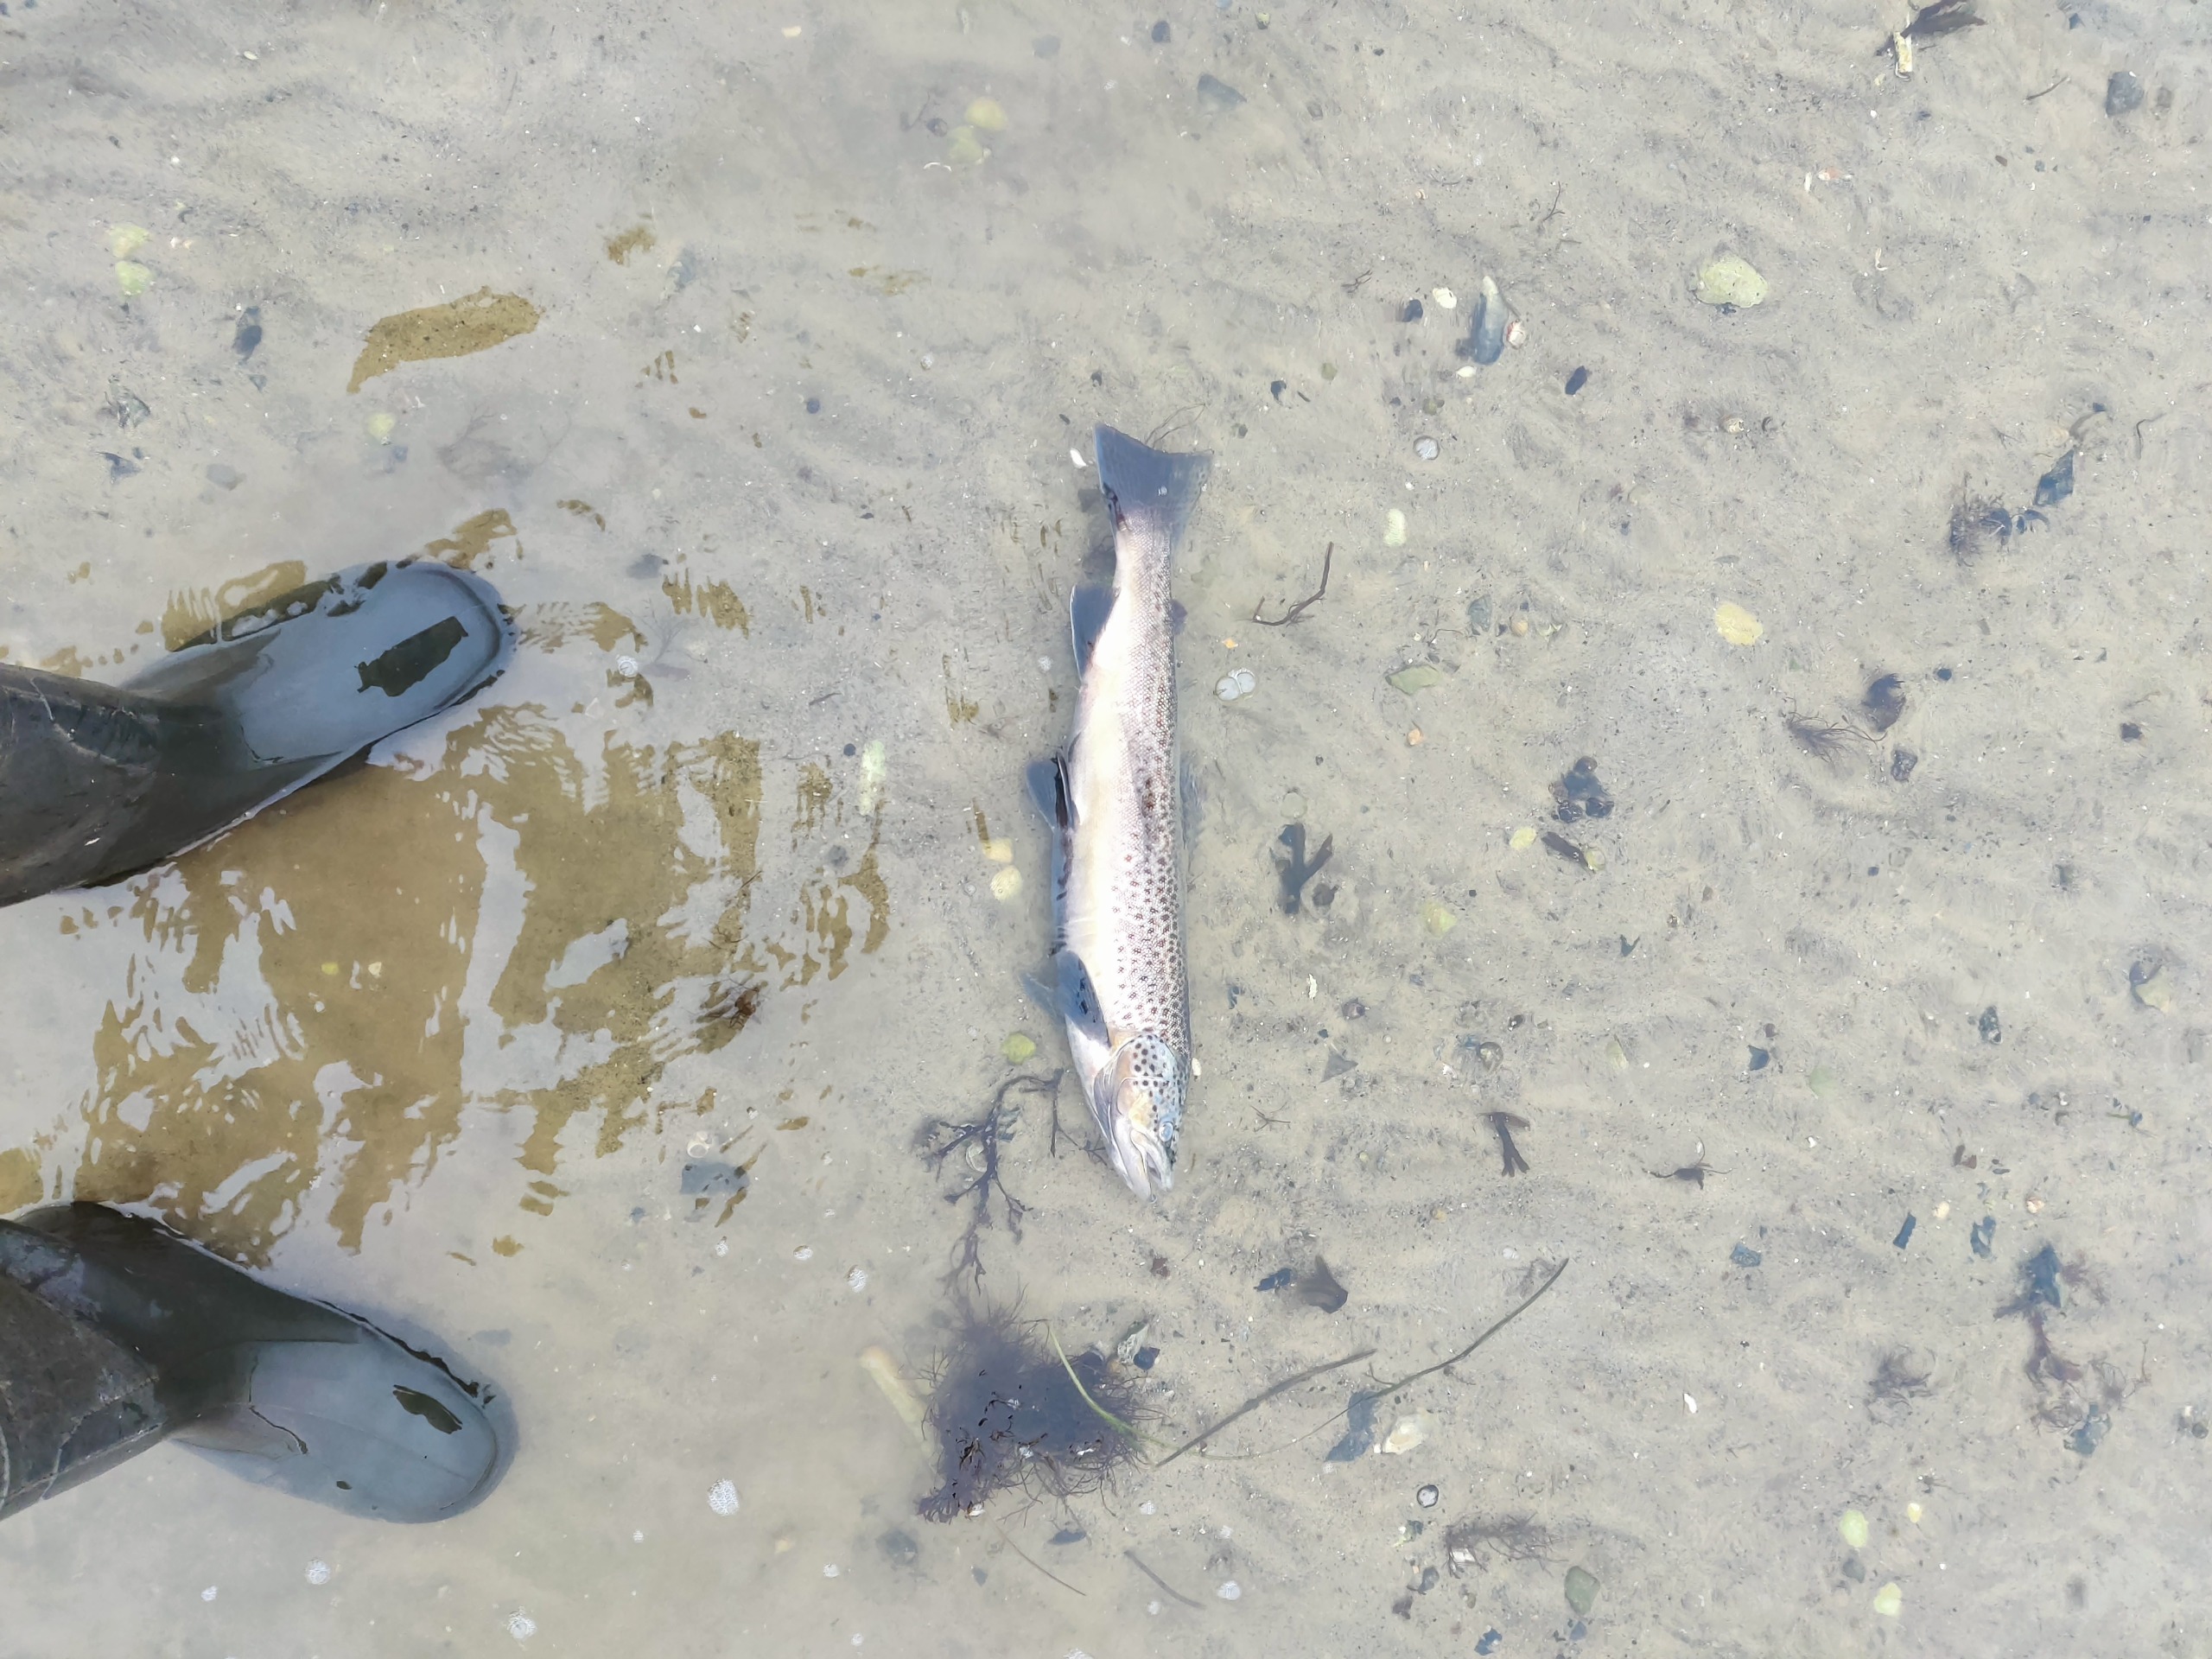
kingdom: Animalia
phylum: Chordata
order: Salmoniformes
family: Salmonidae
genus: Salmo
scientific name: Salmo trutta
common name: Ørred
